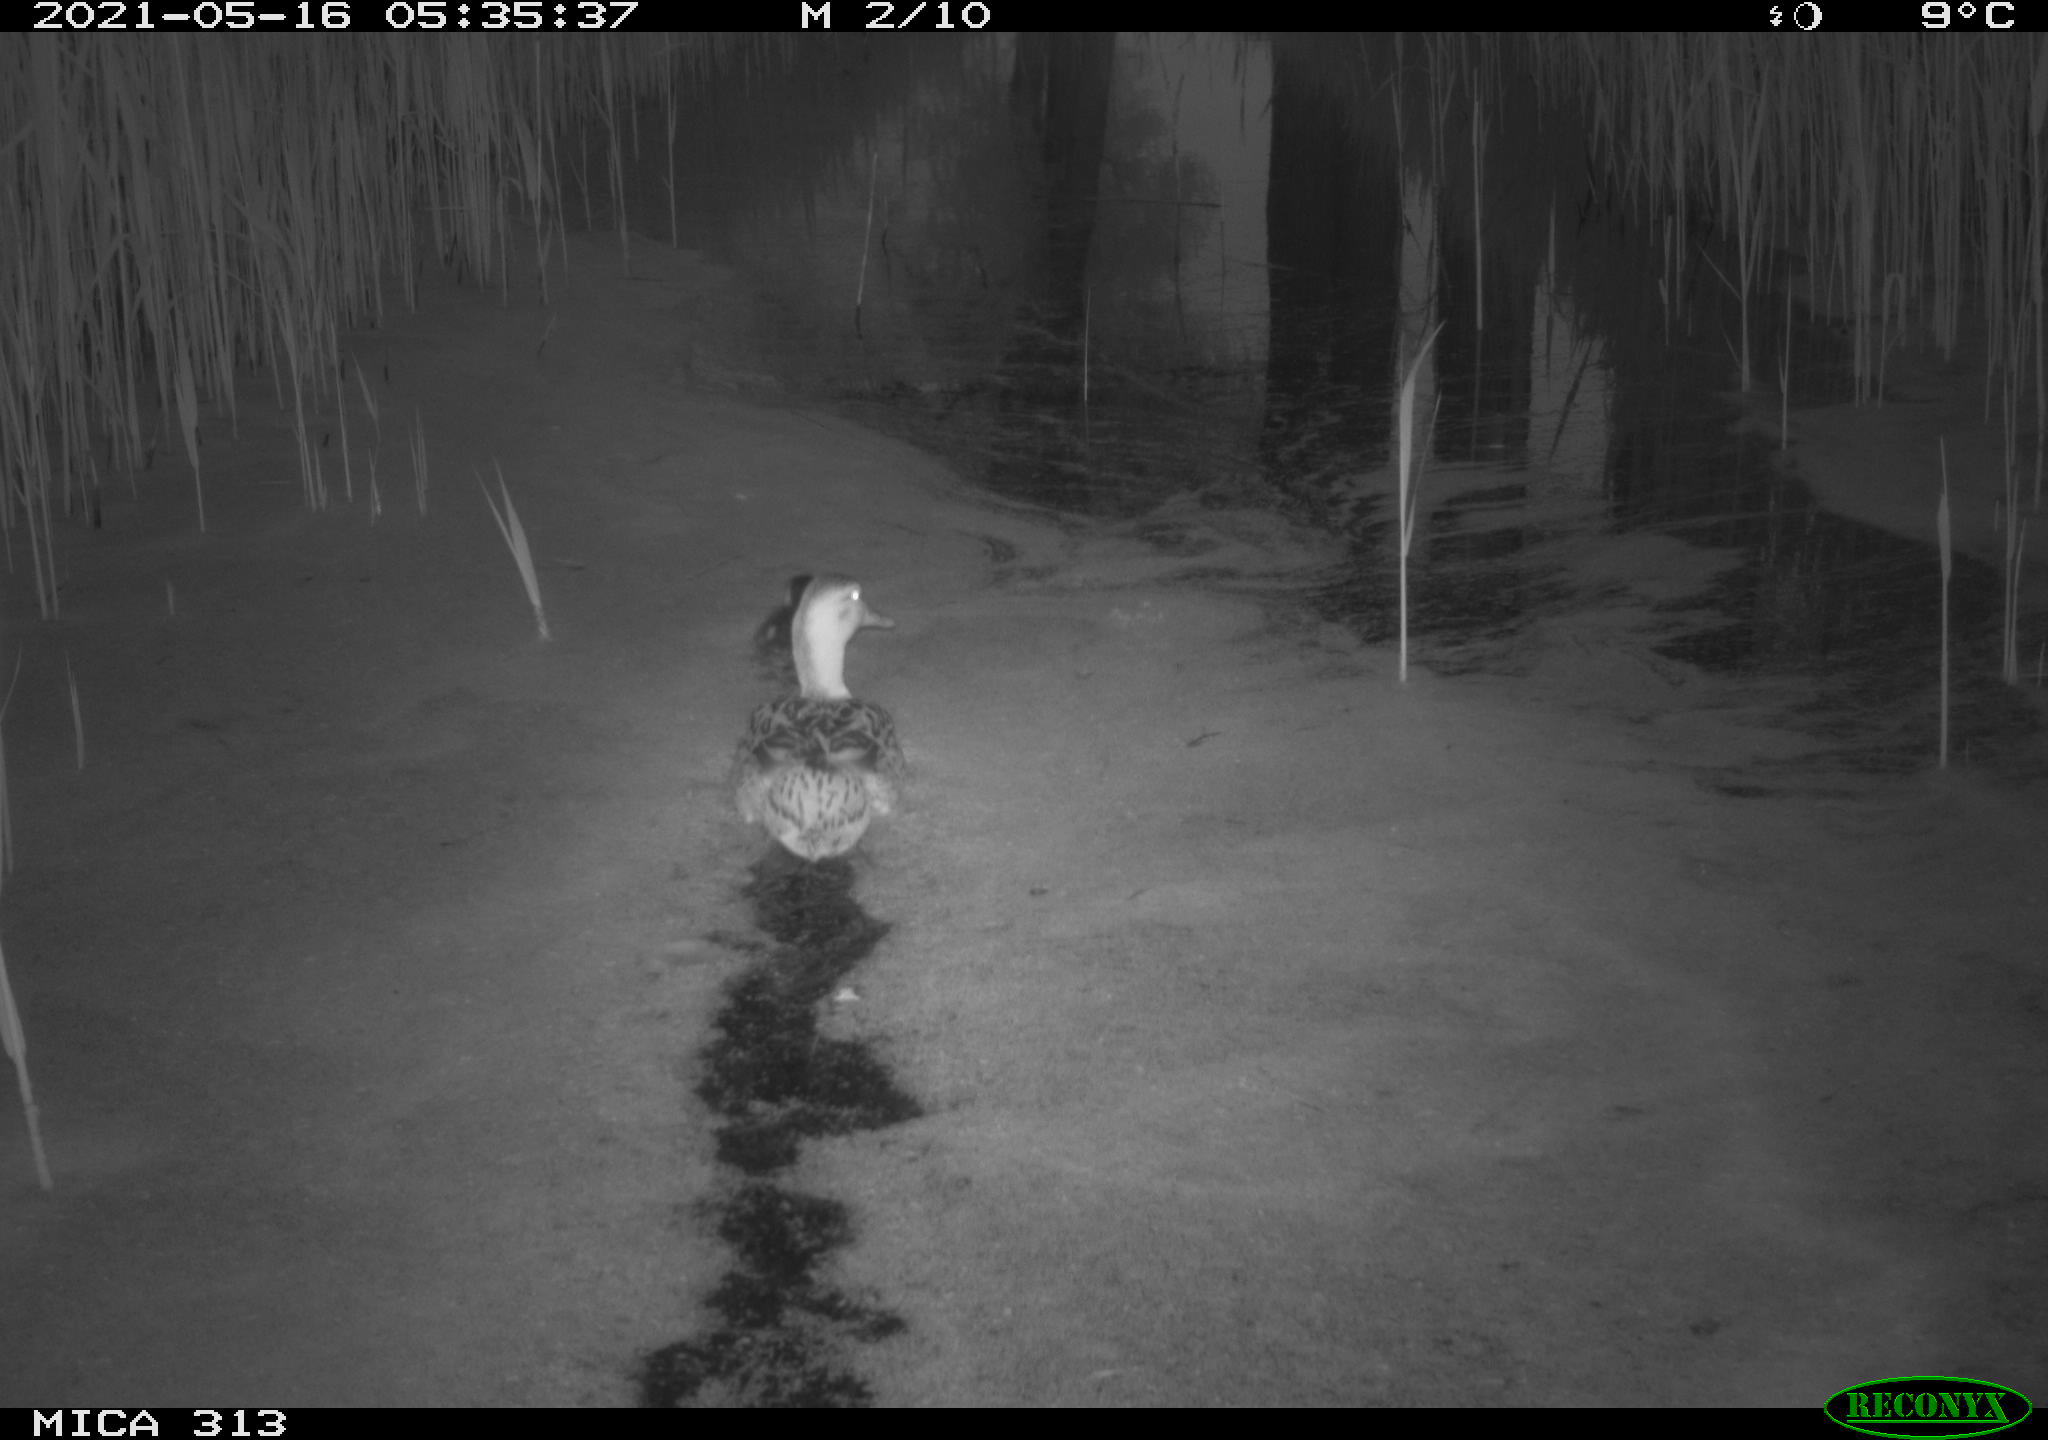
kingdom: Animalia
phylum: Chordata
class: Aves
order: Anseriformes
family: Anatidae
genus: Anas
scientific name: Anas platyrhynchos
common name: Mallard
